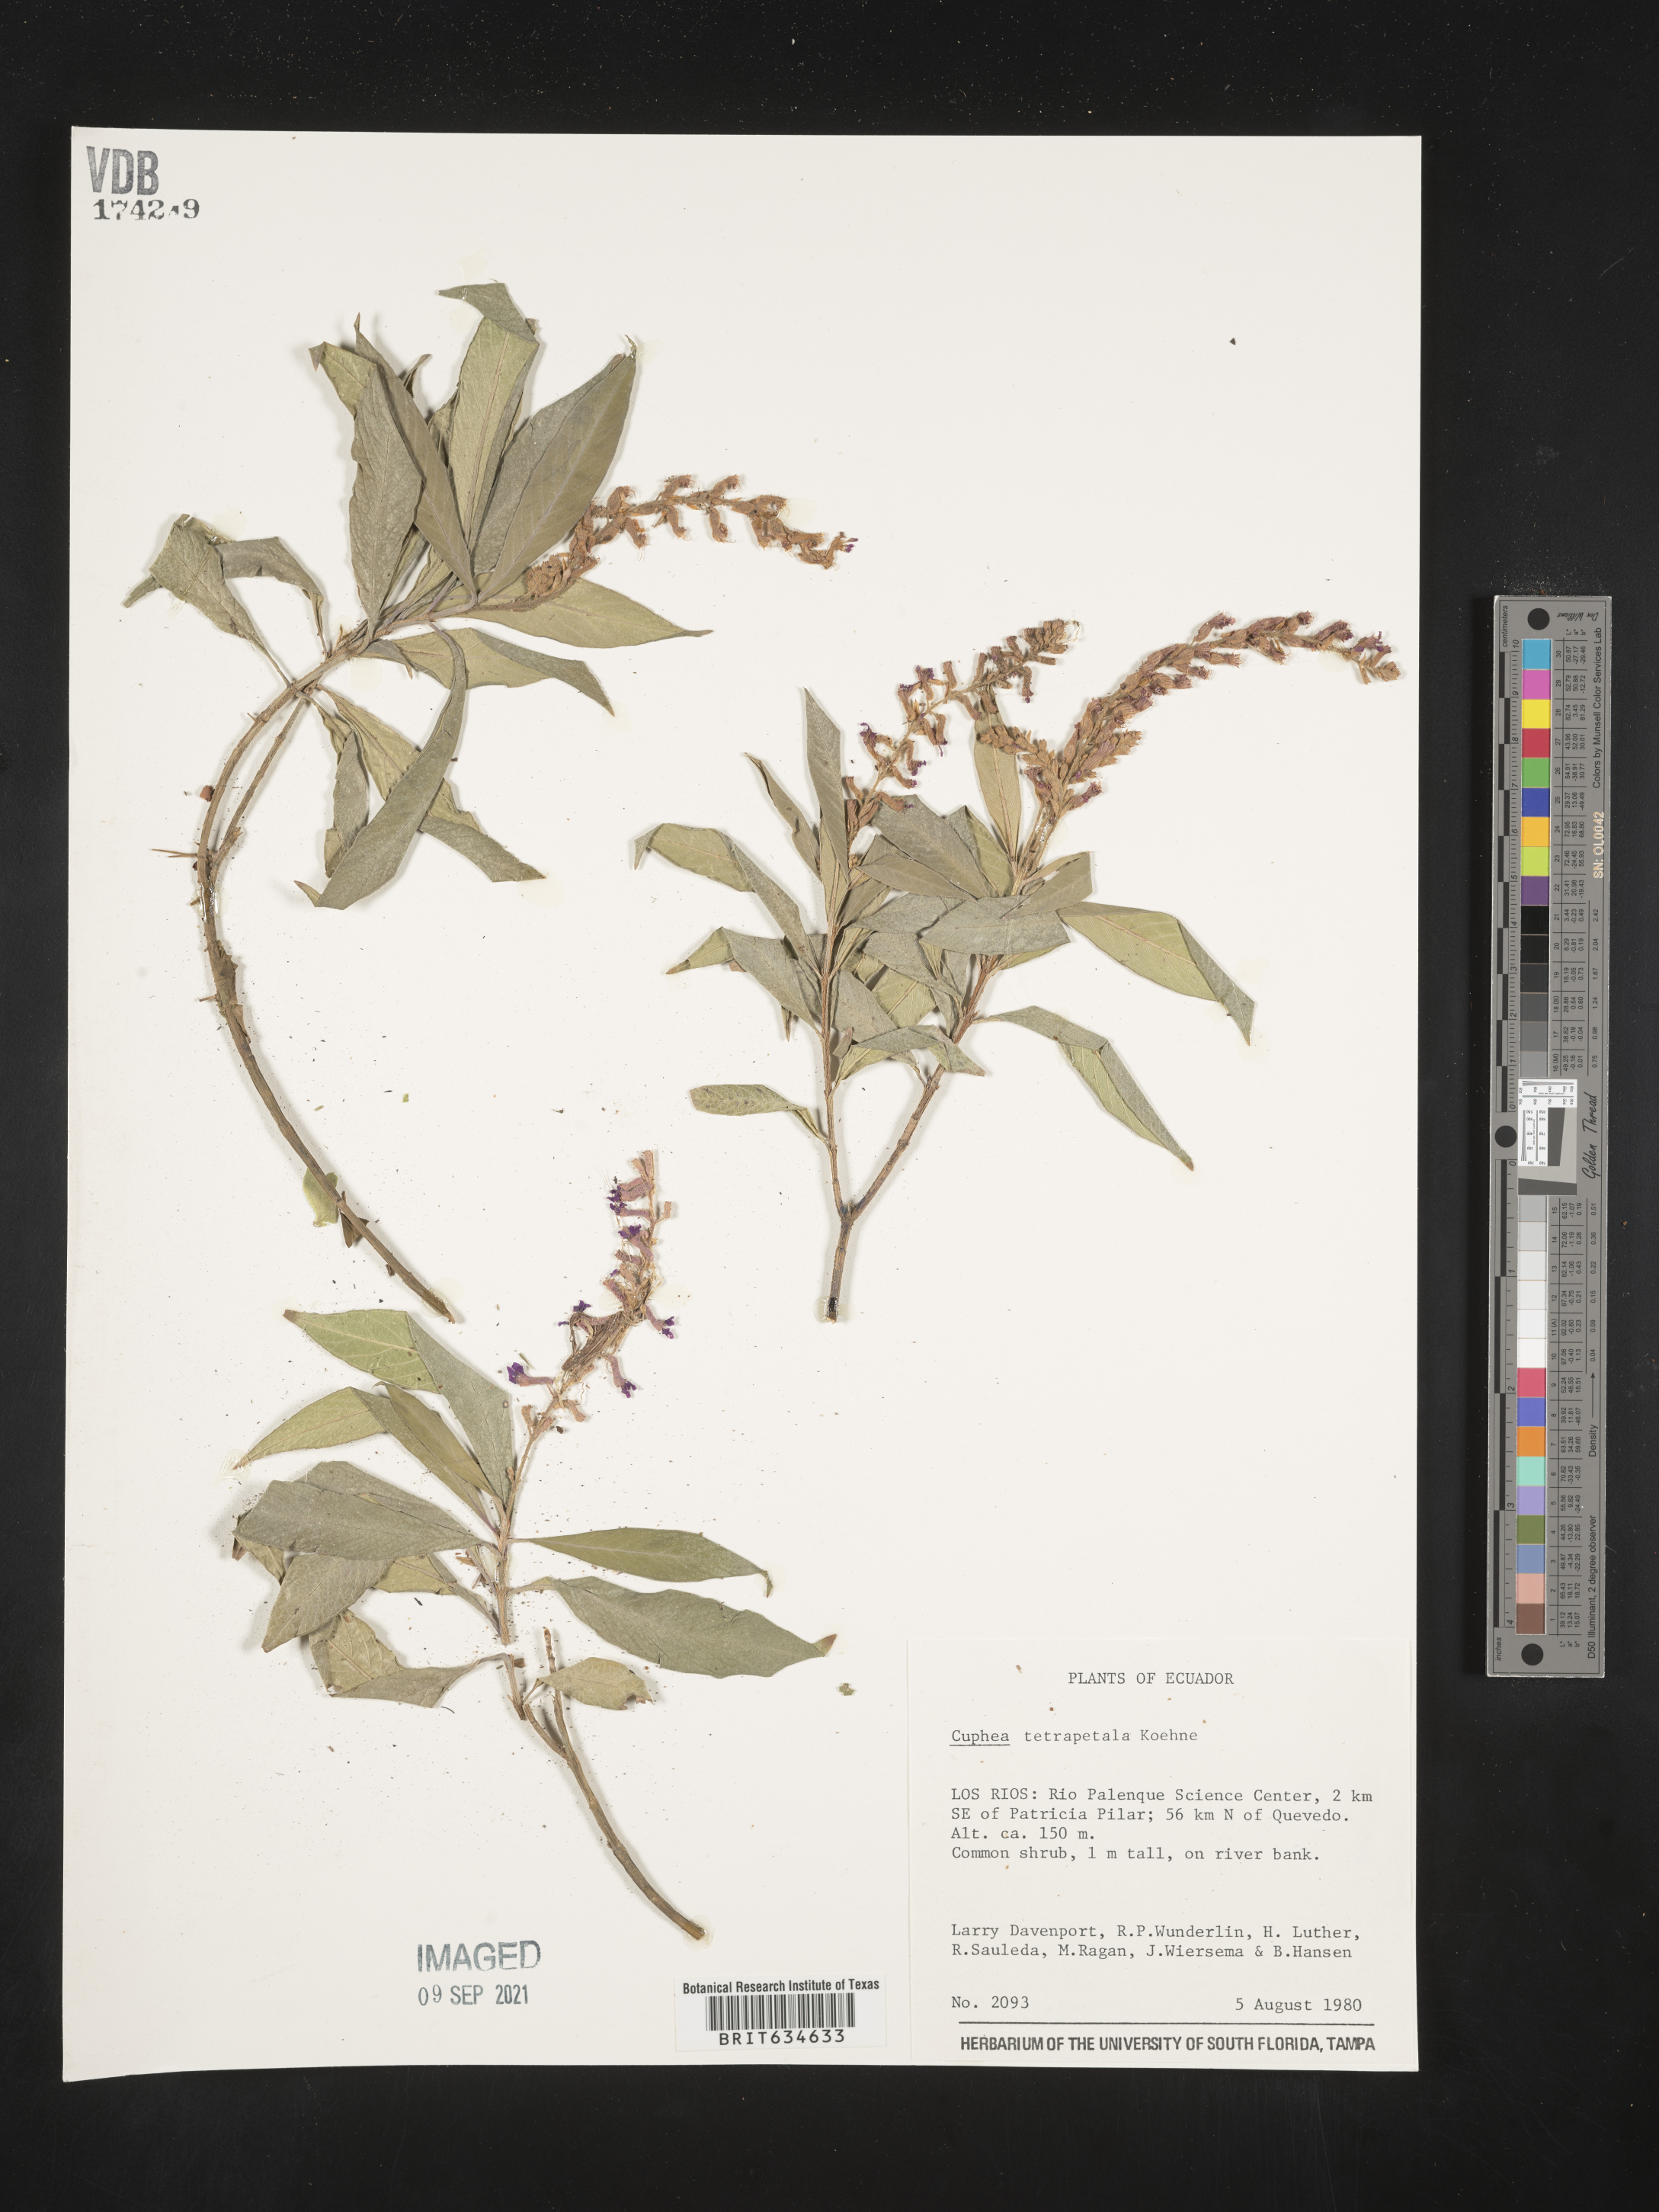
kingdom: Plantae
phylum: Tracheophyta
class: Magnoliopsida
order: Myrtales
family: Lythraceae
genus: Cuphea
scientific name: Cuphea
